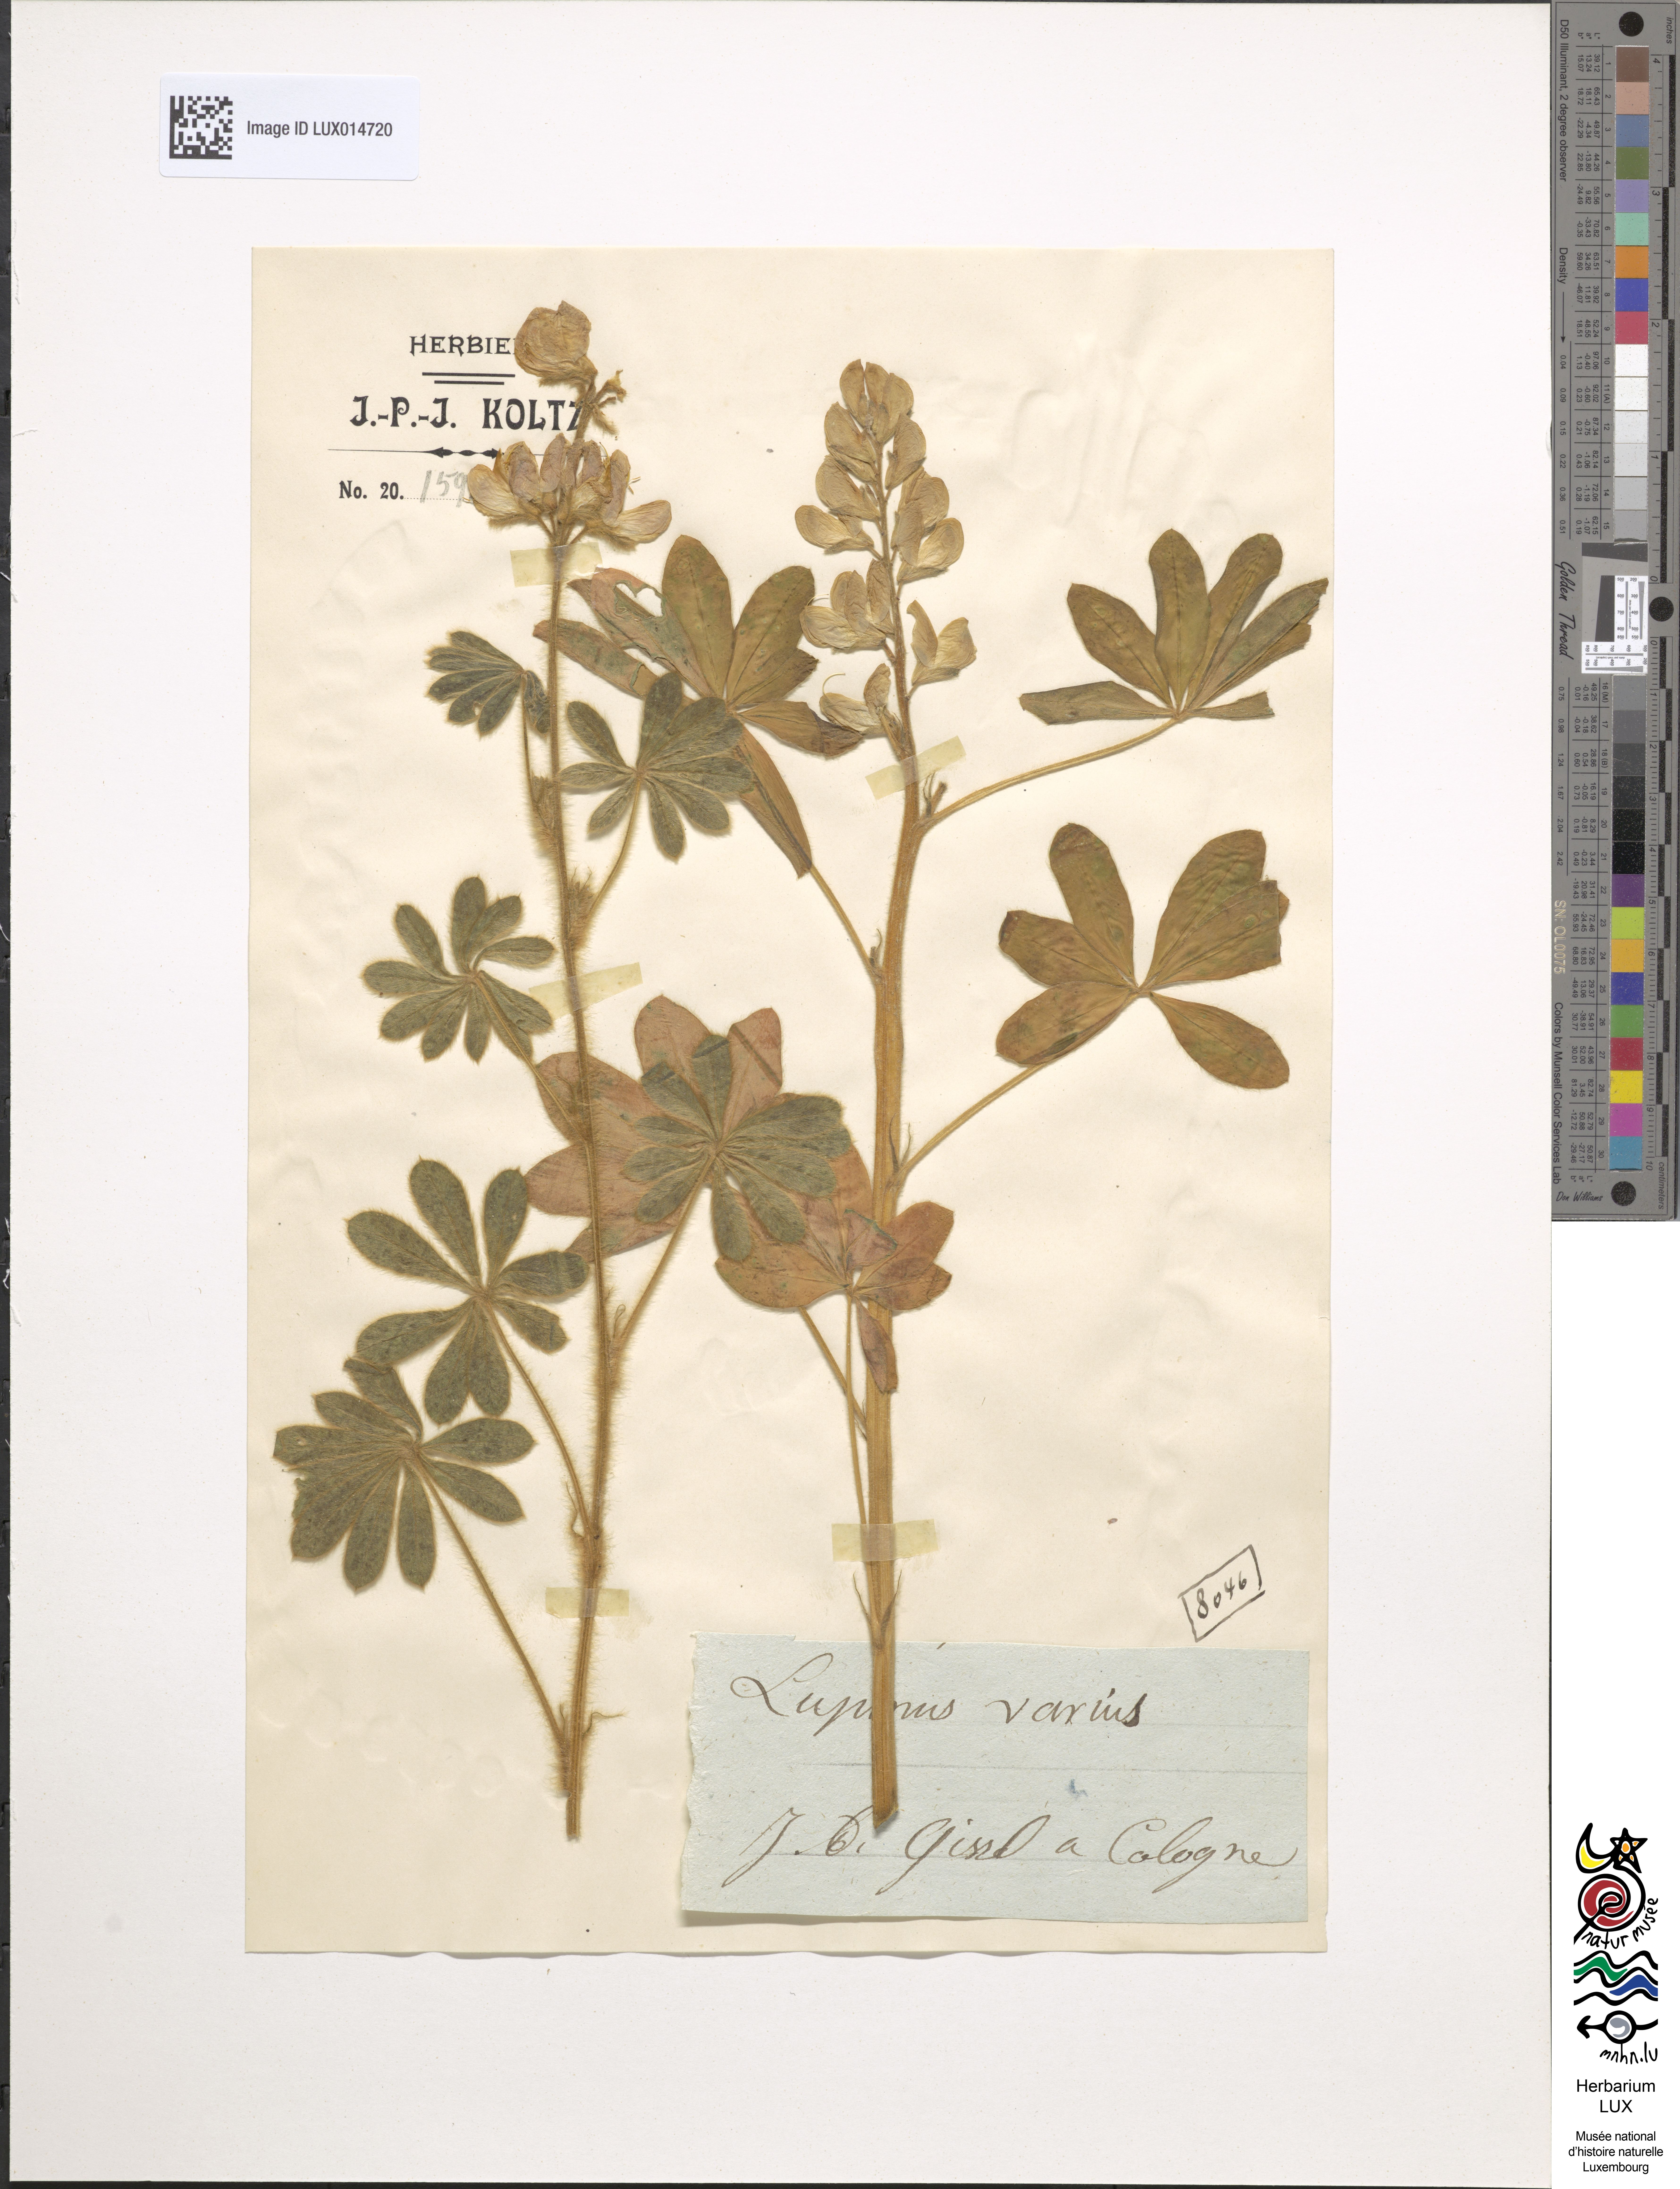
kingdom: Plantae
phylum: Tracheophyta
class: Magnoliopsida
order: Fabales
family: Fabaceae
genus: Lupinus
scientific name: Lupinus angustifolius
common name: Narrow-leaved lupin
